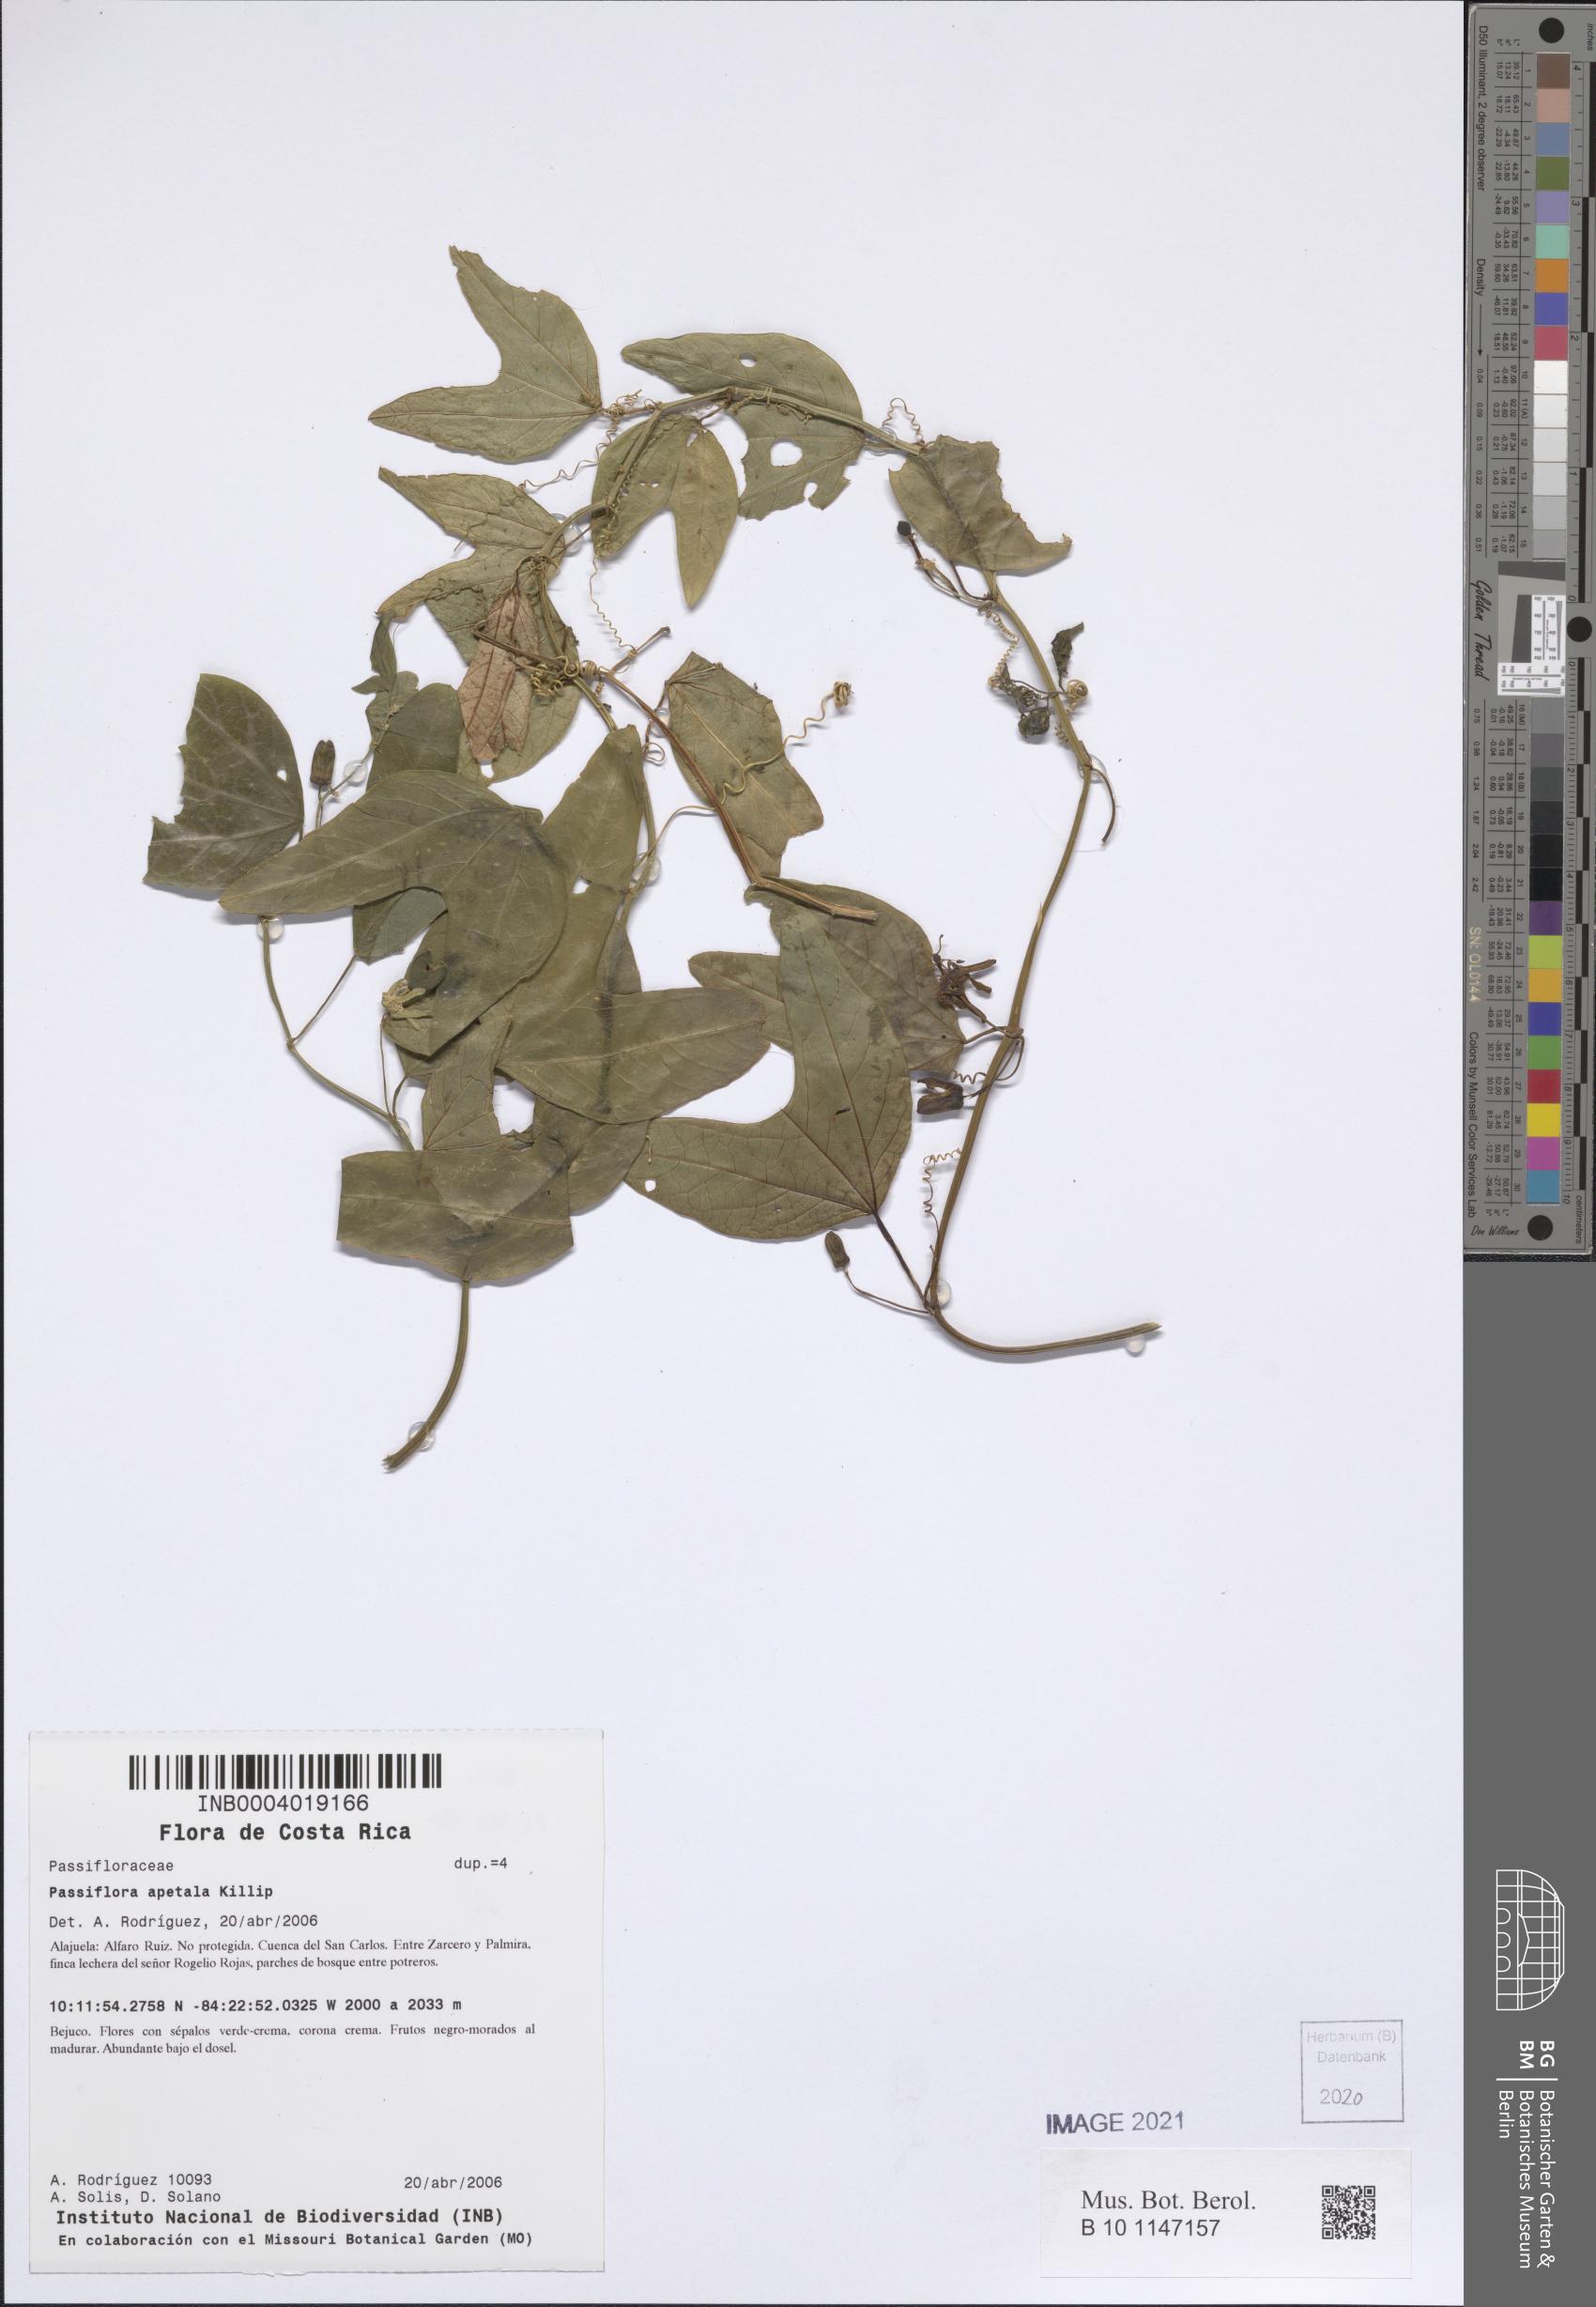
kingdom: Plantae
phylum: Tracheophyta
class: Magnoliopsida
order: Malpighiales
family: Passifloraceae
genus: Passiflora
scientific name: Passiflora apetala
